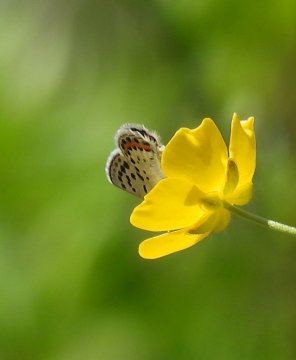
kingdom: Animalia
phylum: Arthropoda
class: Insecta
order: Lepidoptera
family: Lycaenidae
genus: Plebejus
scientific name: Plebejus acmon
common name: Acmon Blue
